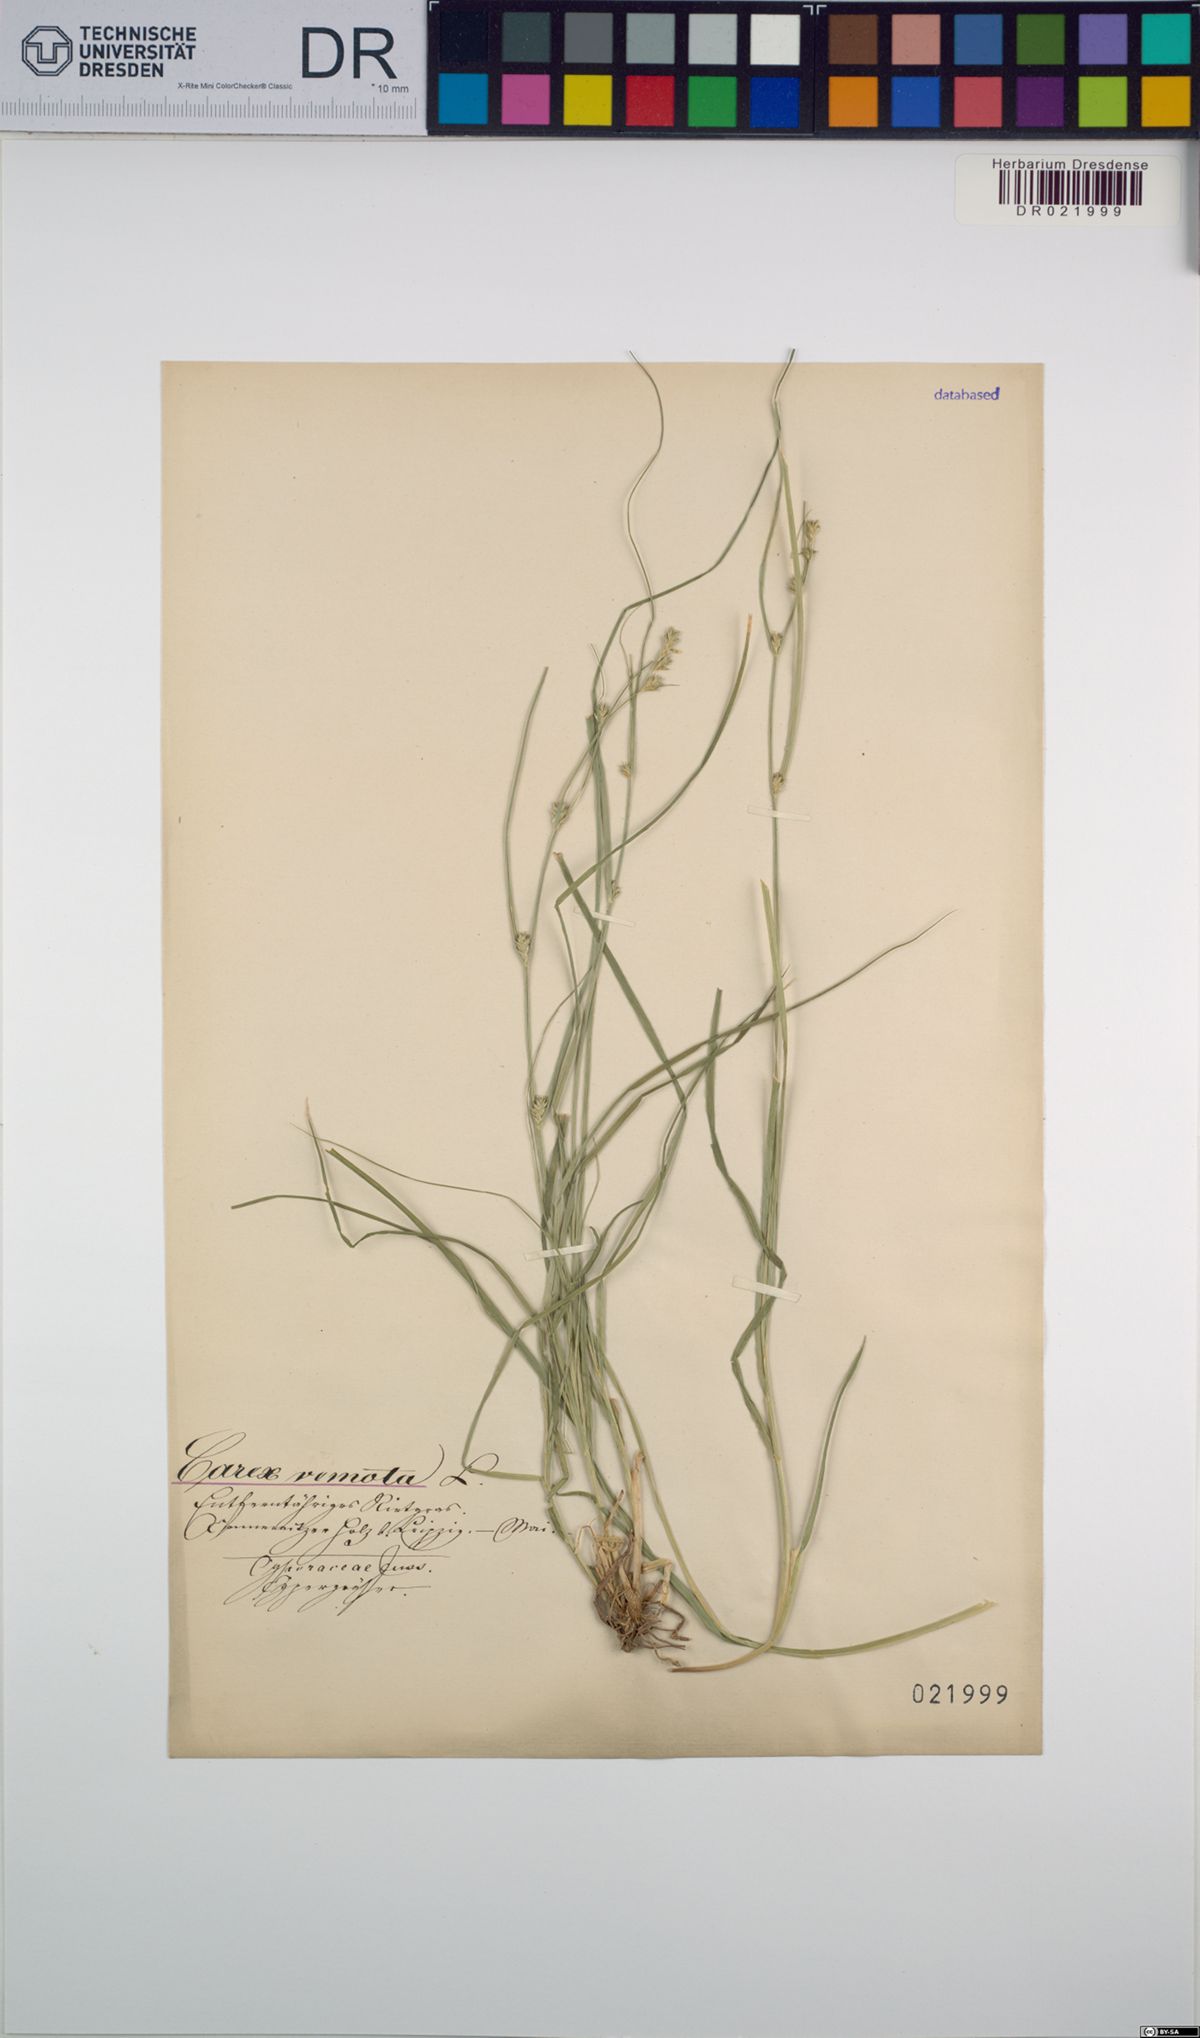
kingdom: Plantae
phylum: Tracheophyta
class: Liliopsida
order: Poales
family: Cyperaceae
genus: Carex
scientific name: Carex remota
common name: Remote sedge
